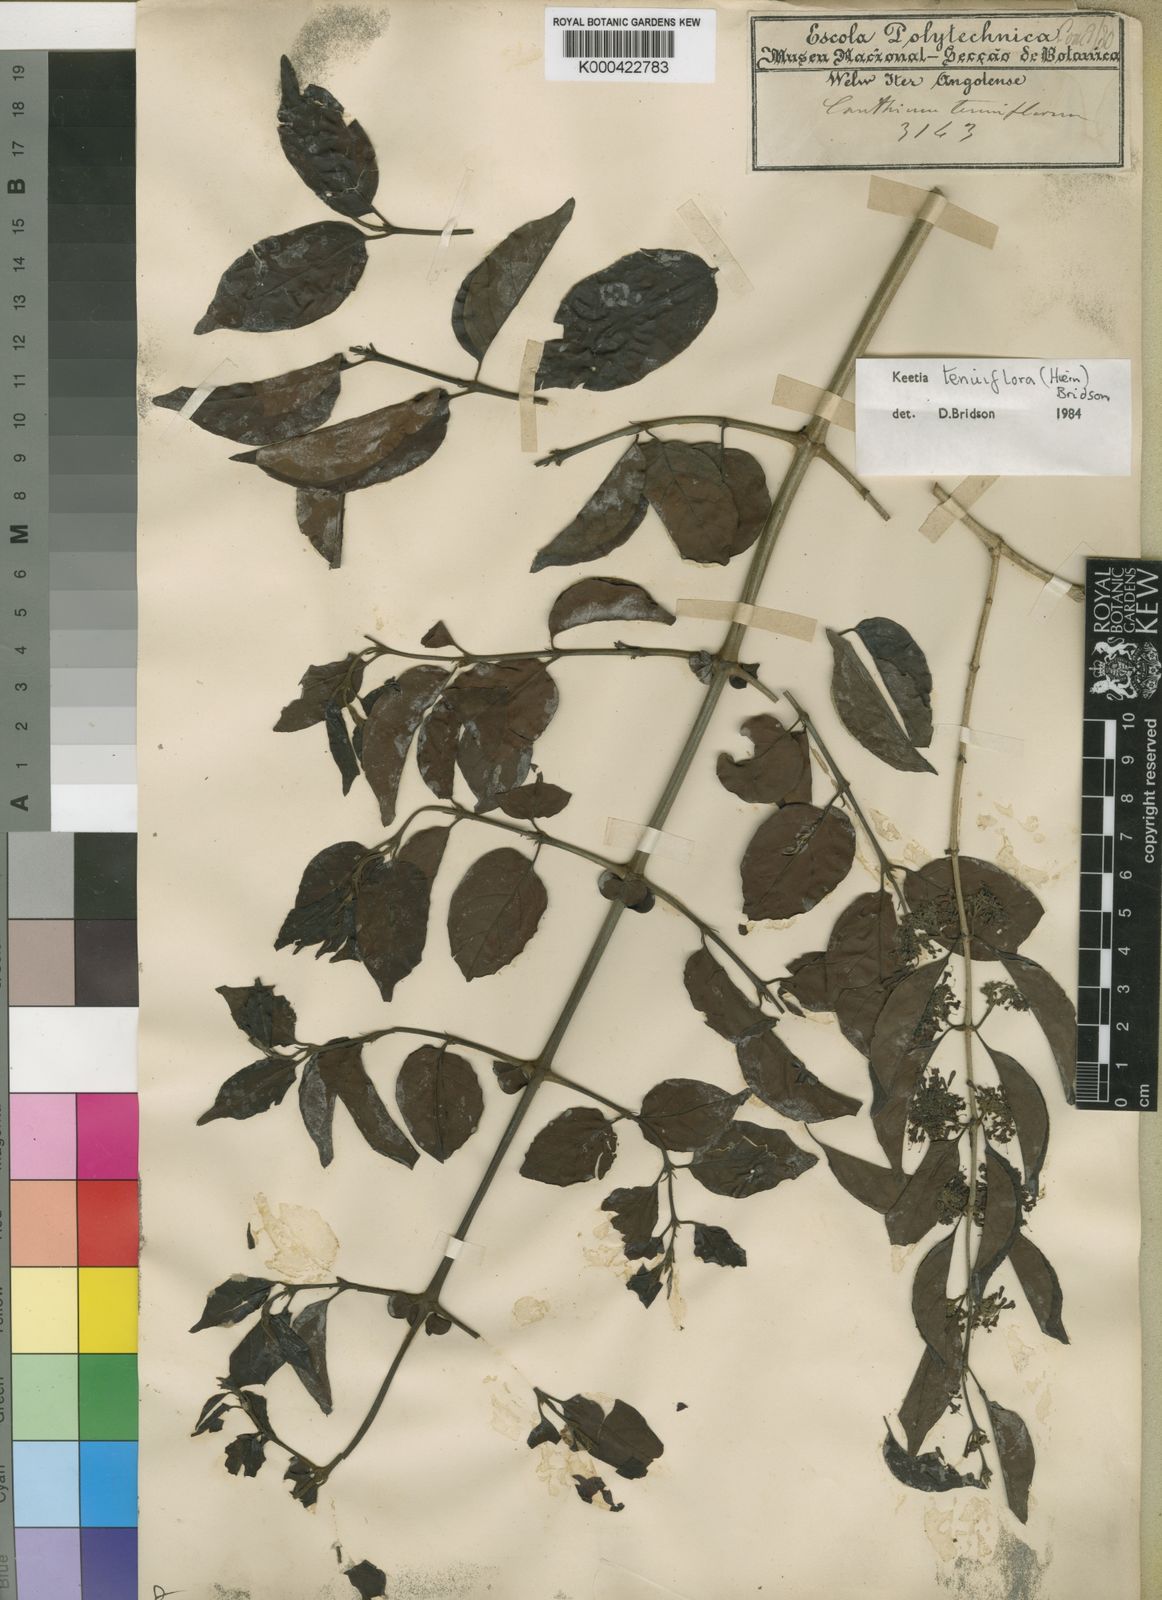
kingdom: Plantae
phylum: Tracheophyta
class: Magnoliopsida
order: Gentianales
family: Rubiaceae
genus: Keetia
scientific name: Keetia tenuiflora
